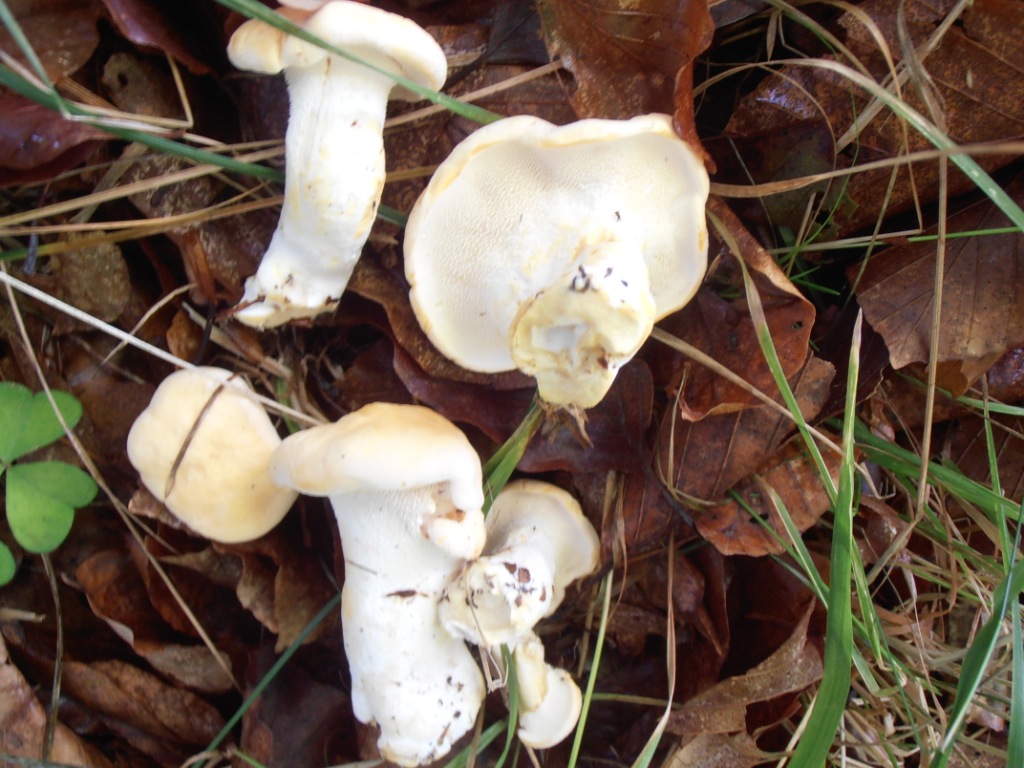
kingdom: Fungi
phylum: Basidiomycota
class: Agaricomycetes
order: Cantharellales
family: Hydnaceae
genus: Hydnum
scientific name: Hydnum repandum
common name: almindelig pigsvamp
